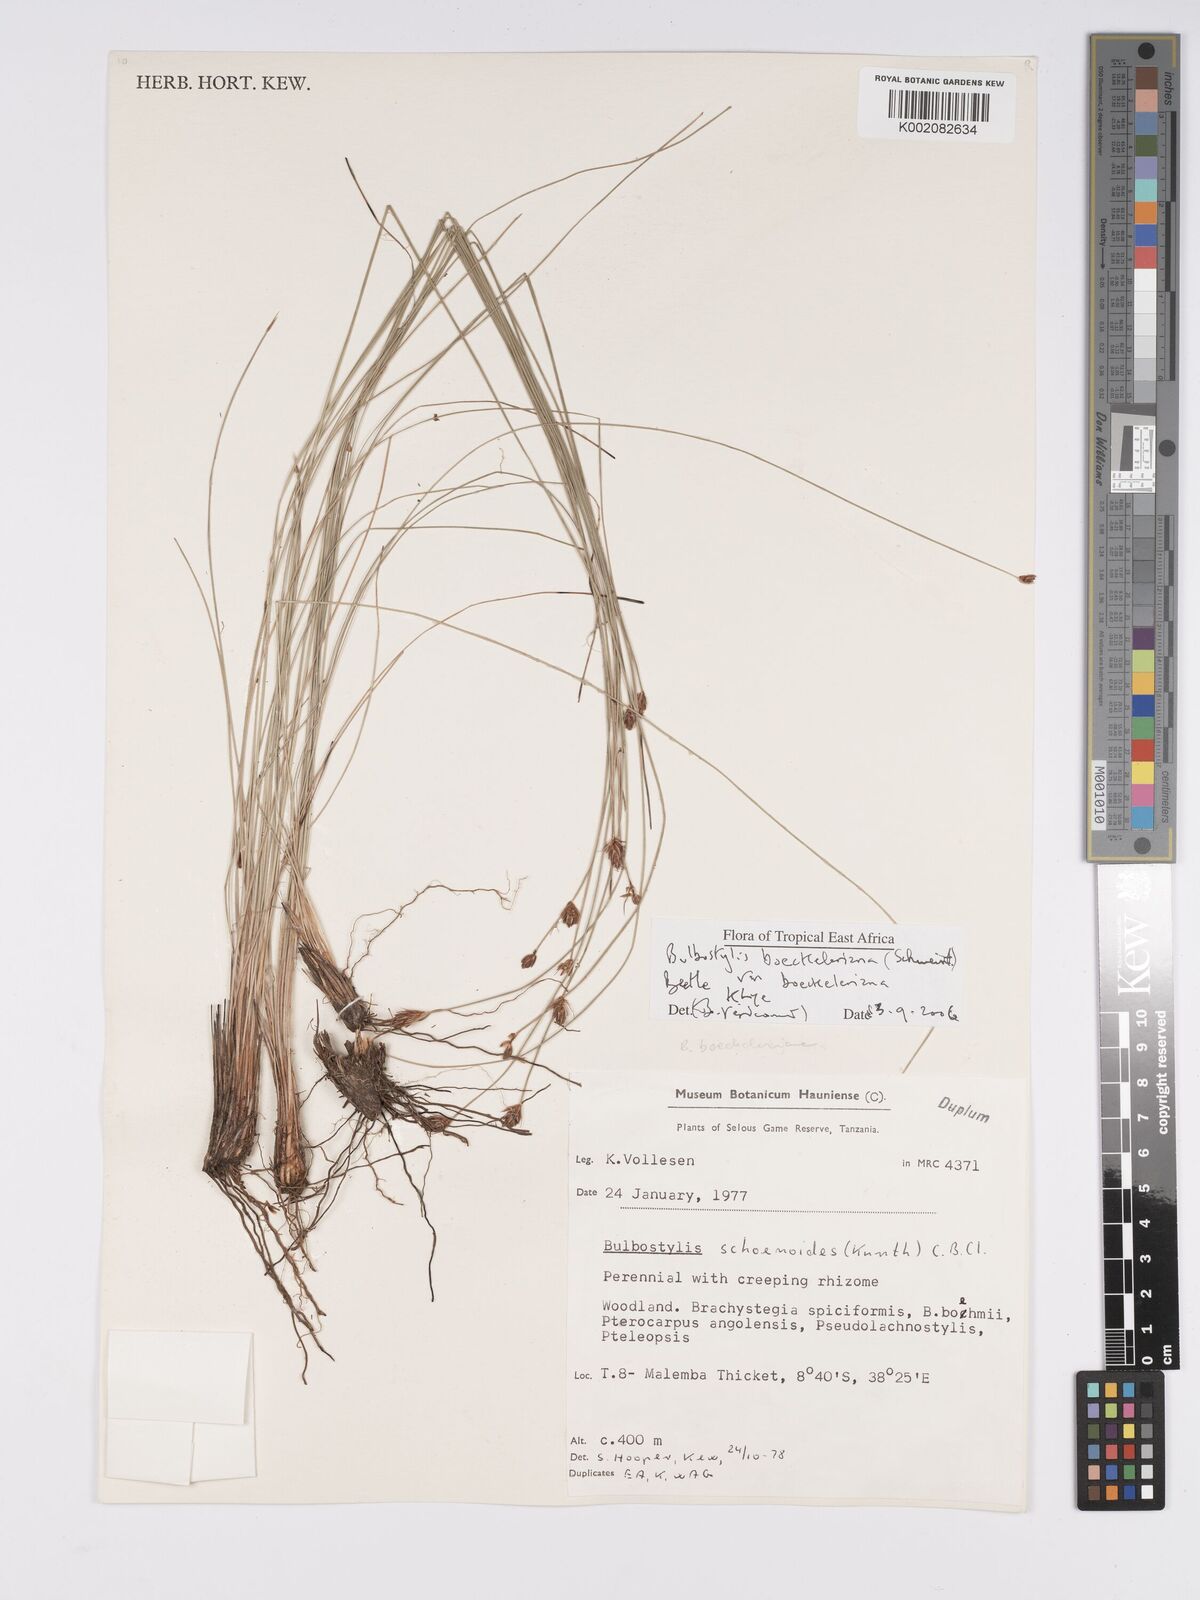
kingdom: Plantae
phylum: Tracheophyta
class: Liliopsida
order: Poales
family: Cyperaceae
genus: Bulbostylis
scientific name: Bulbostylis boeckeleriana
